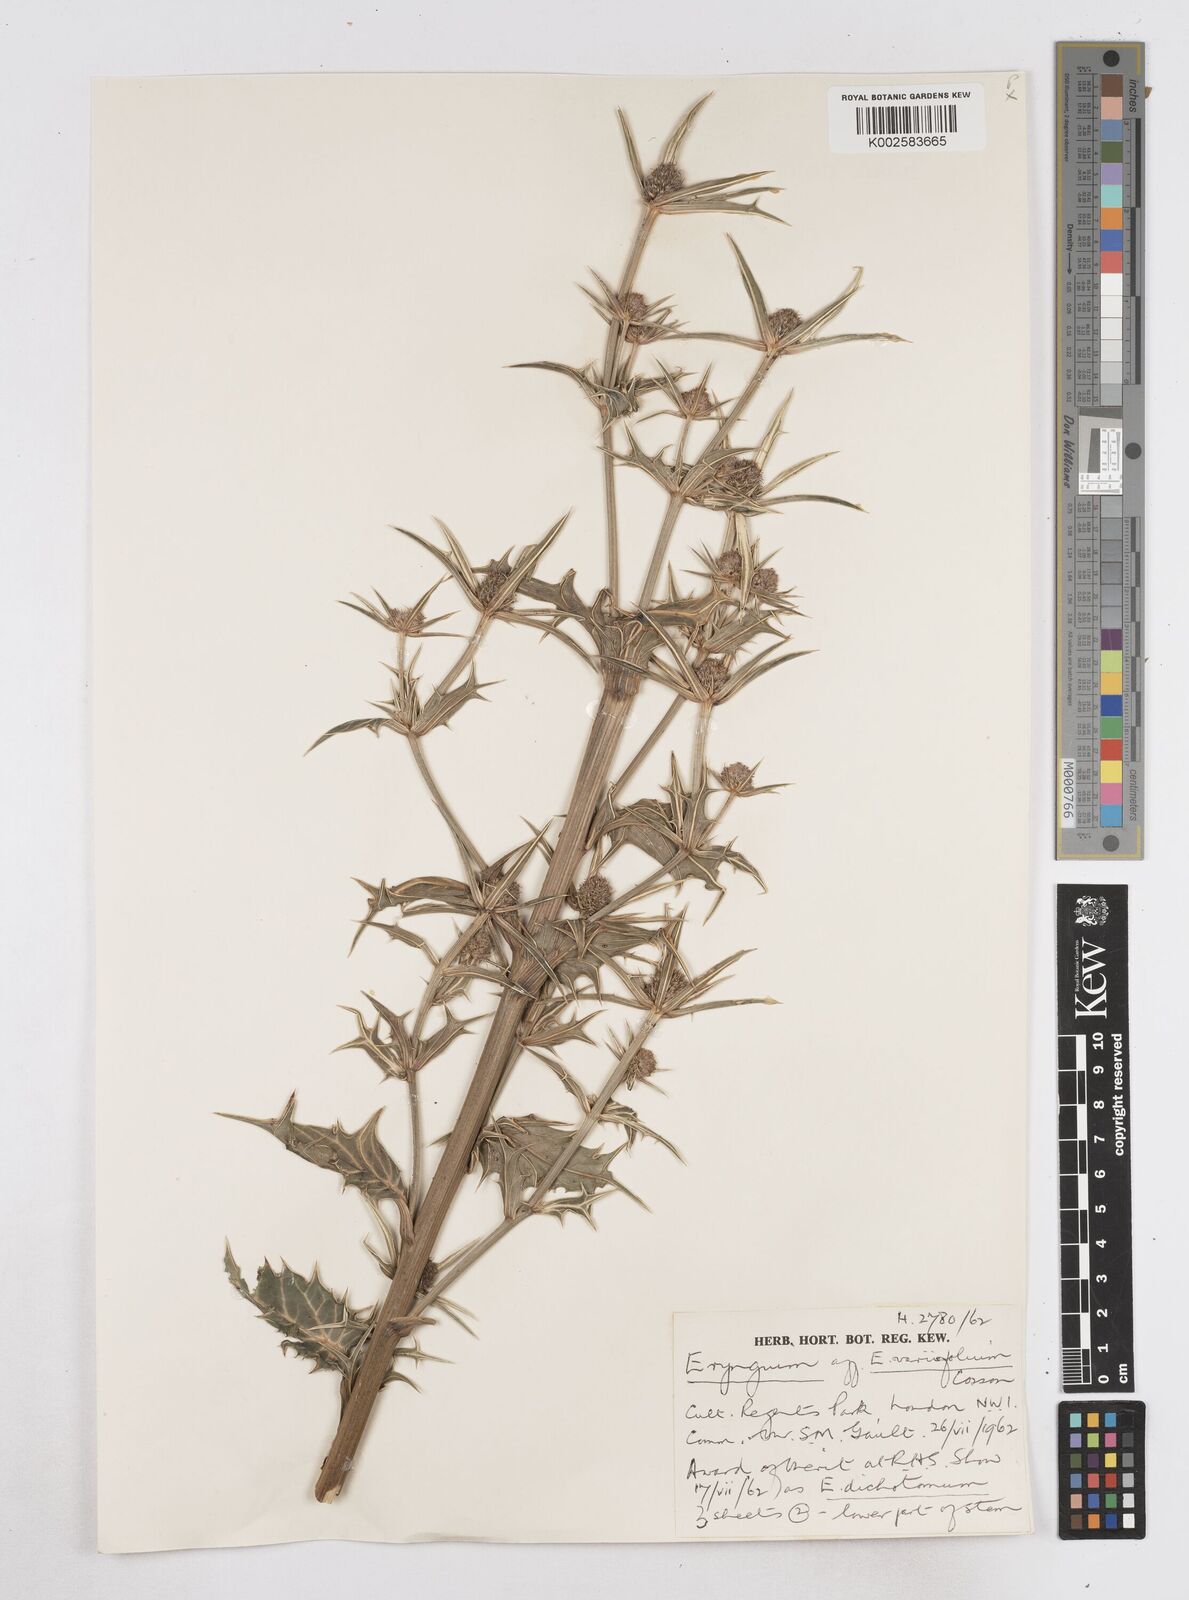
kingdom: Plantae
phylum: Tracheophyta
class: Magnoliopsida
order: Apiales
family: Apiaceae
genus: Eryngium
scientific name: Eryngium variifolium
